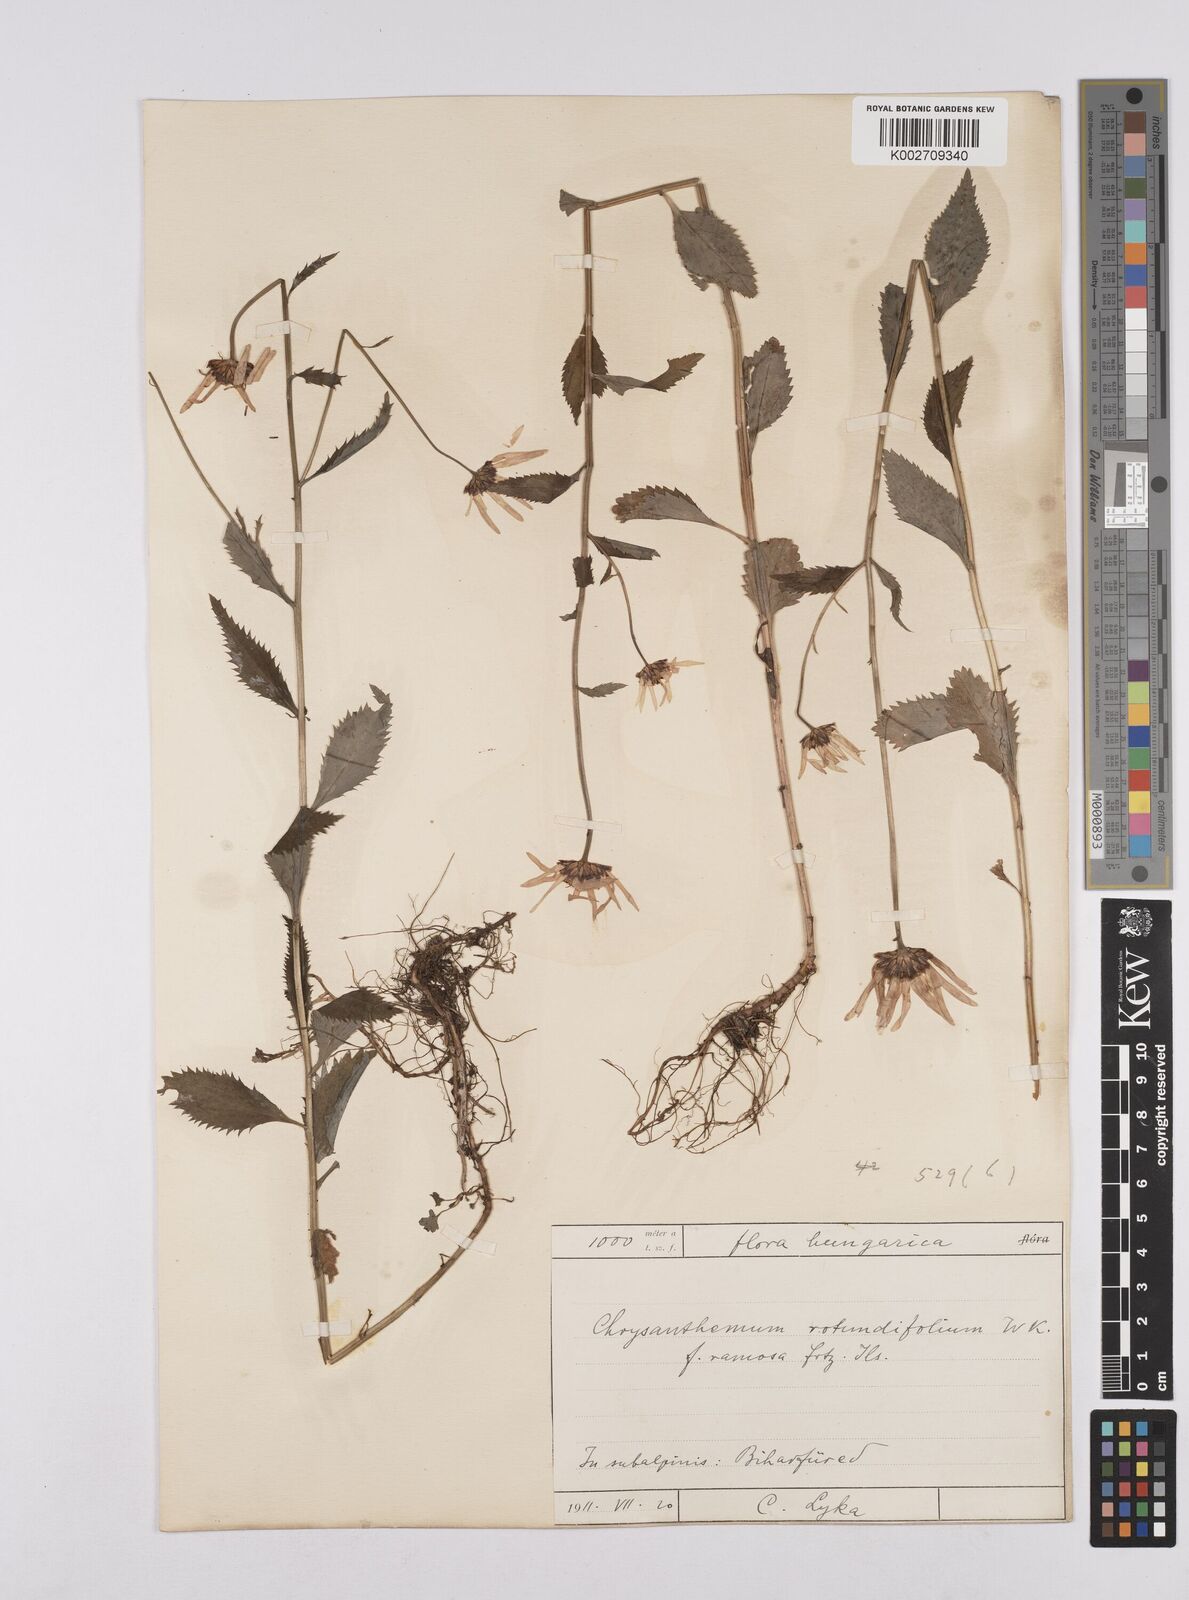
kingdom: Plantae
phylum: Tracheophyta
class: Magnoliopsida
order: Asterales
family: Asteraceae
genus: Leucanthemum
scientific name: Leucanthemum rotundifolium
